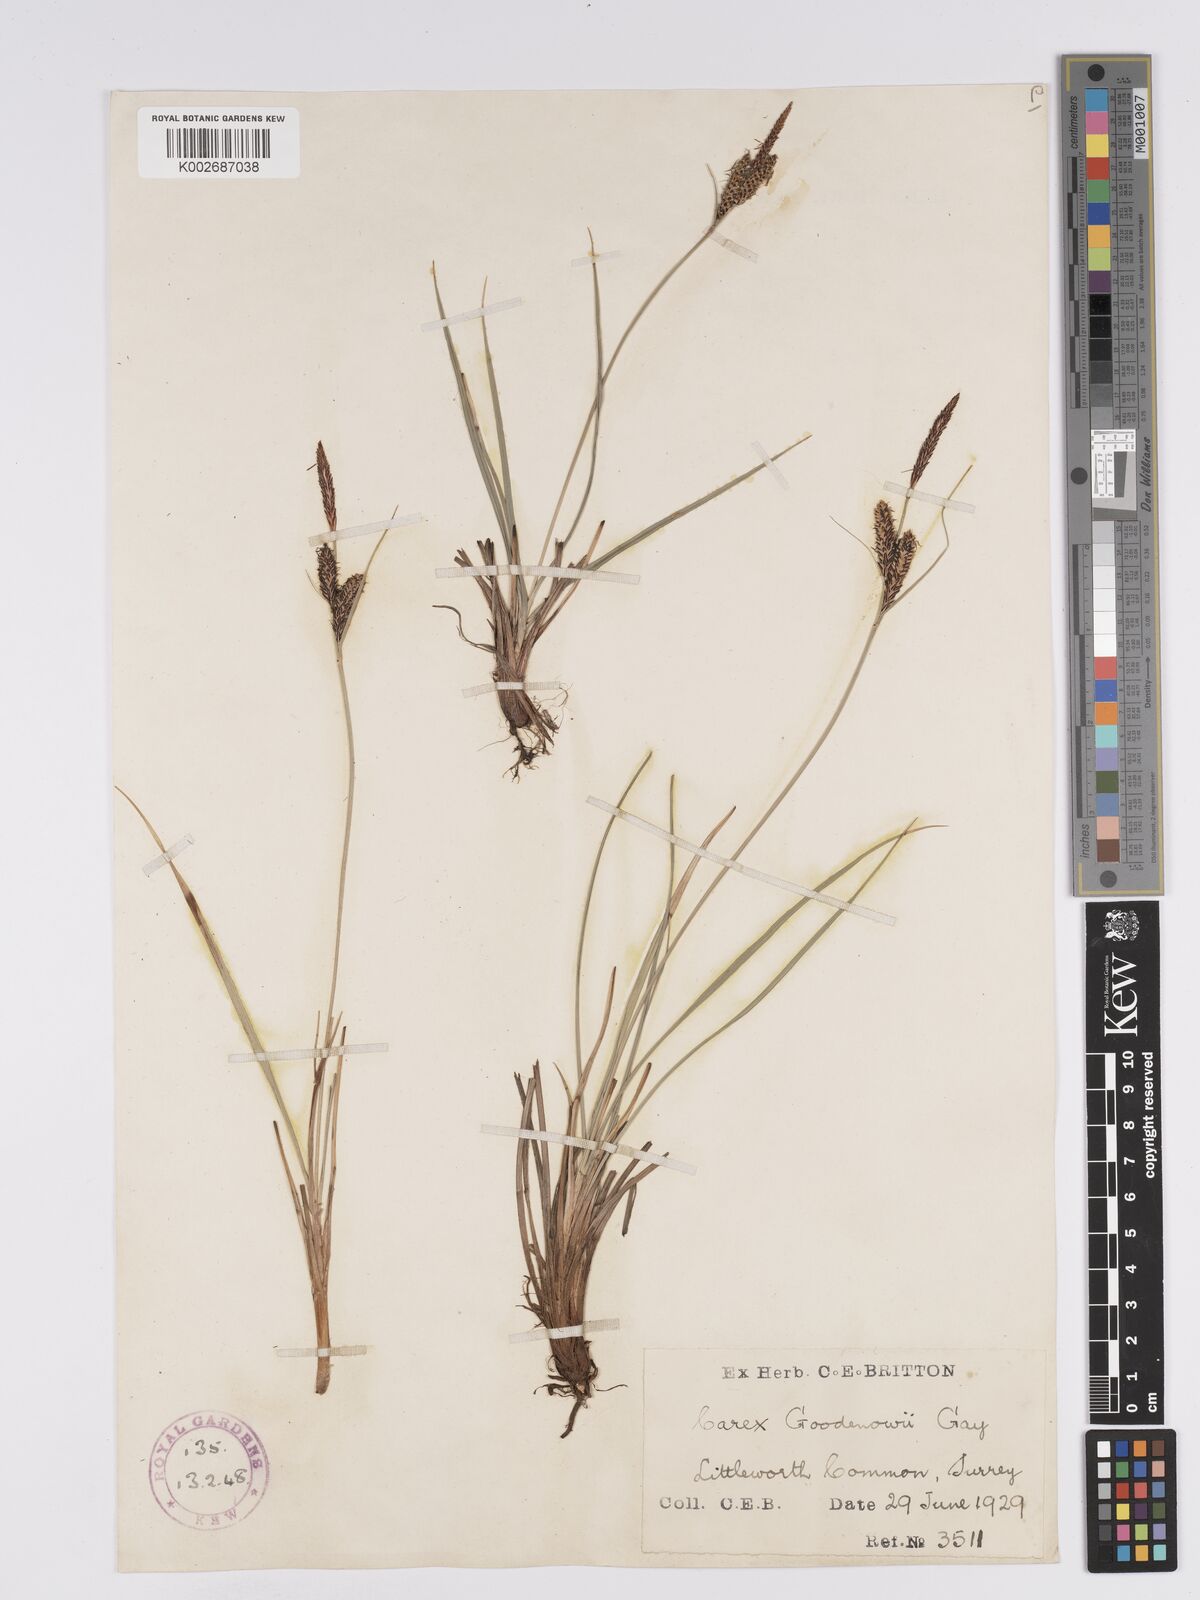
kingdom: Plantae
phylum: Tracheophyta
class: Liliopsida
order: Poales
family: Cyperaceae
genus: Carex
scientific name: Carex nigra
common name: Common sedge
